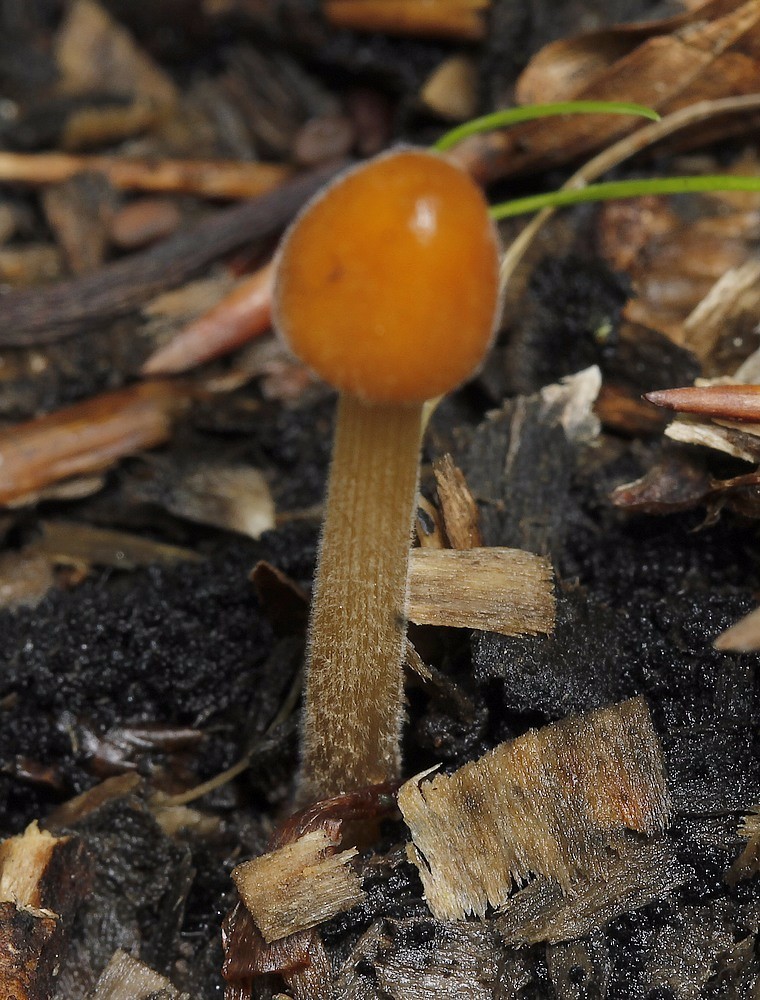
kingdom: Fungi
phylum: Basidiomycota
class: Agaricomycetes
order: Agaricales
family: Bolbitiaceae
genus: Conocybe
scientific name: Conocybe
